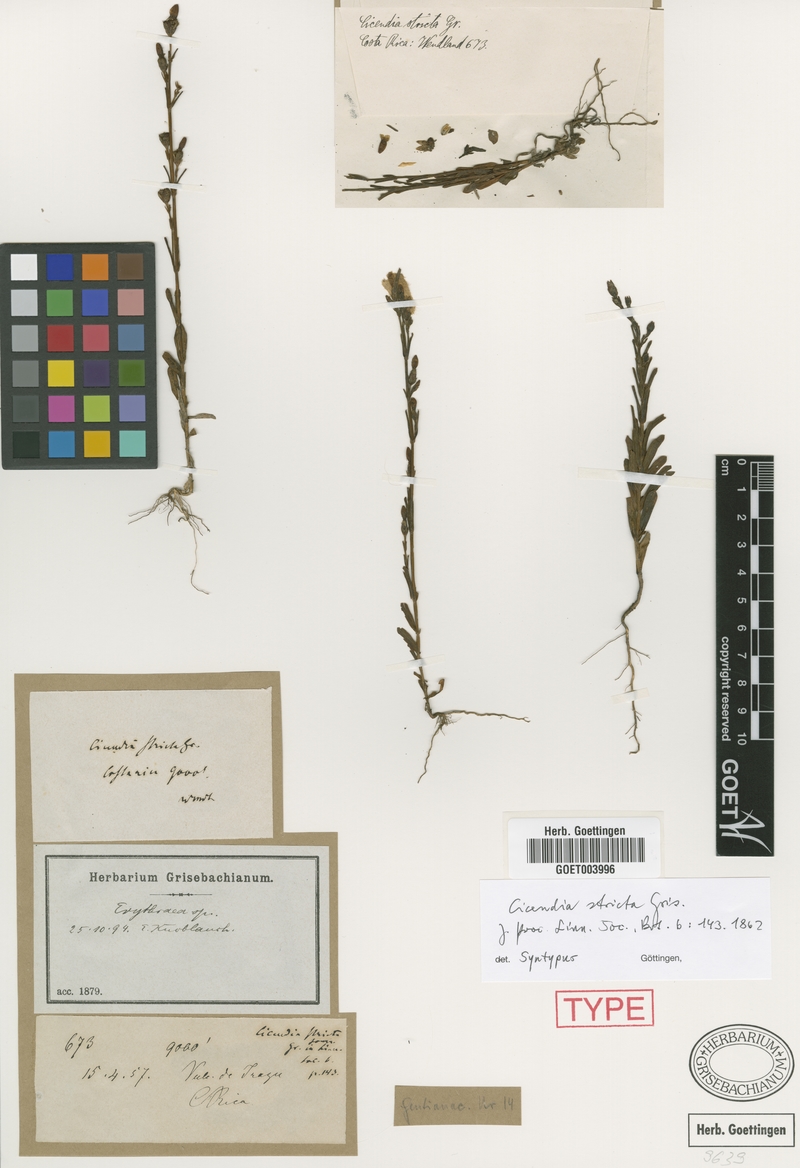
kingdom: Plantae
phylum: Tracheophyta
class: Magnoliopsida
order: Gentianales
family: Gentianaceae
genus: Gyrandra
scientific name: Gyrandra brachycalyx
